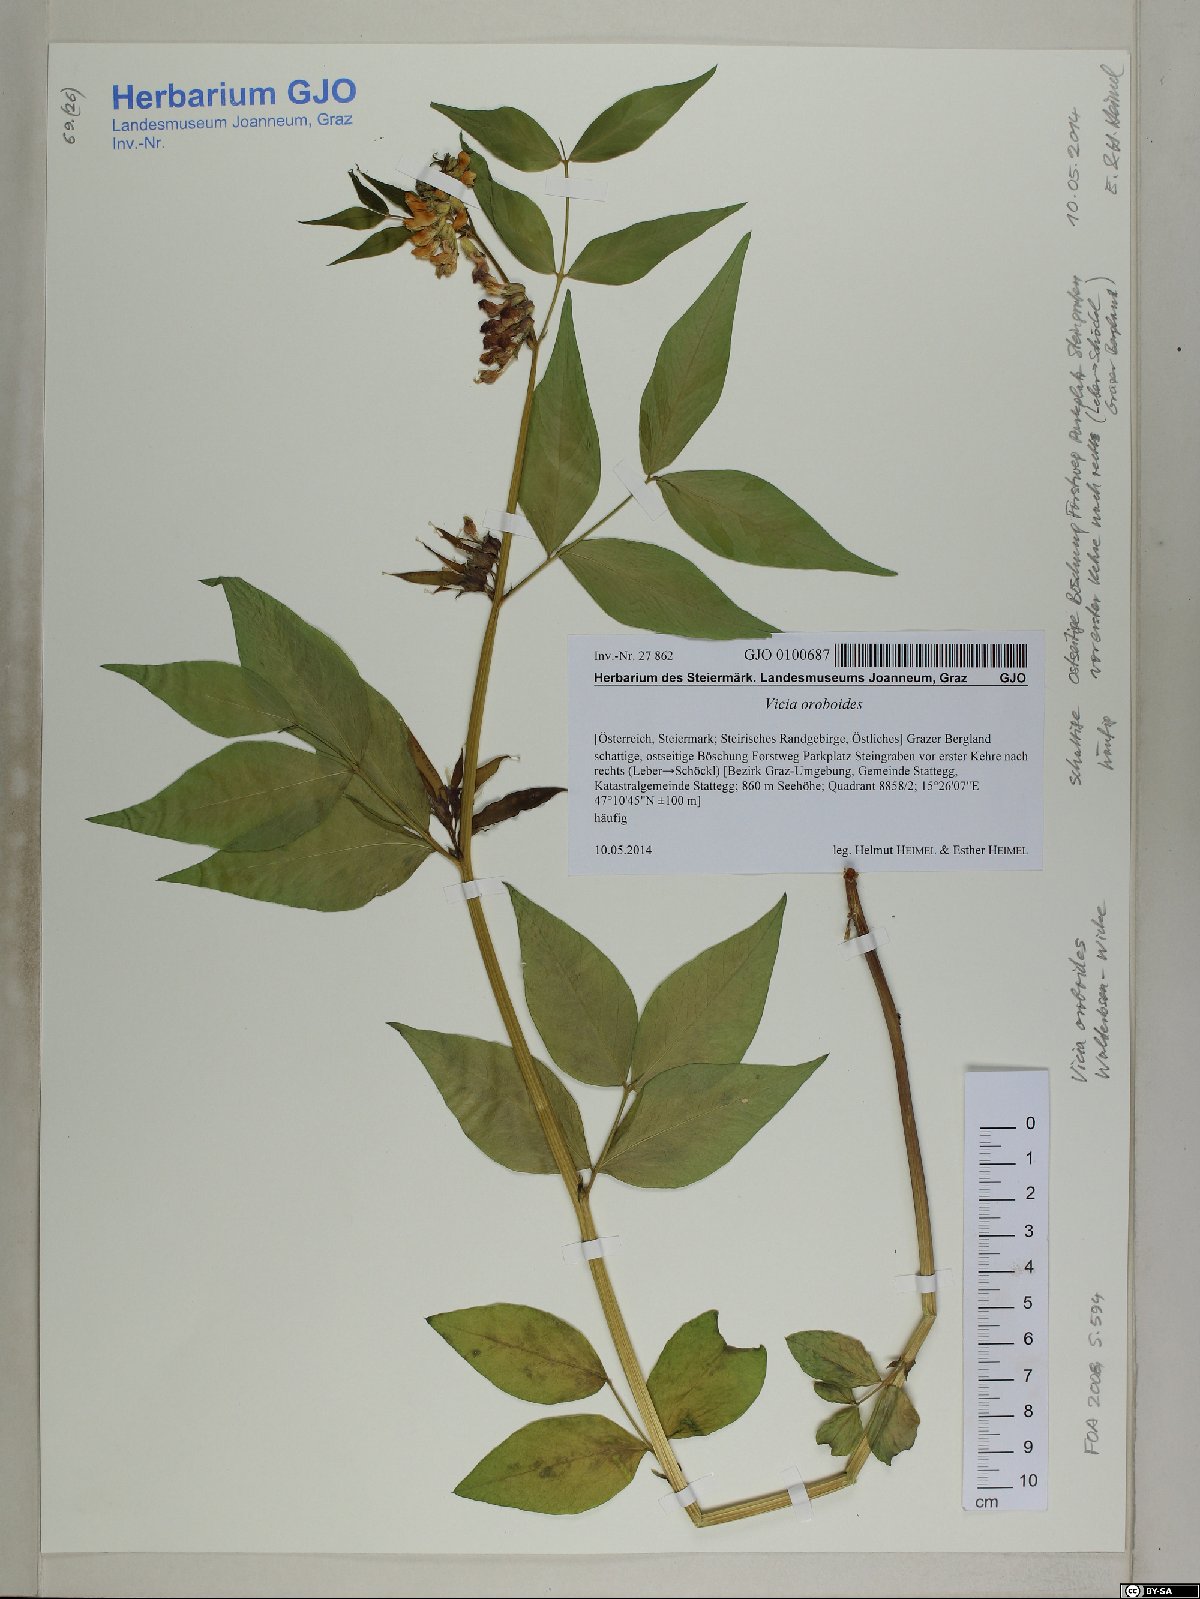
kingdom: Plantae
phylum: Tracheophyta
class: Magnoliopsida
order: Fabales
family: Fabaceae
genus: Vicia
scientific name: Vicia oroboides
